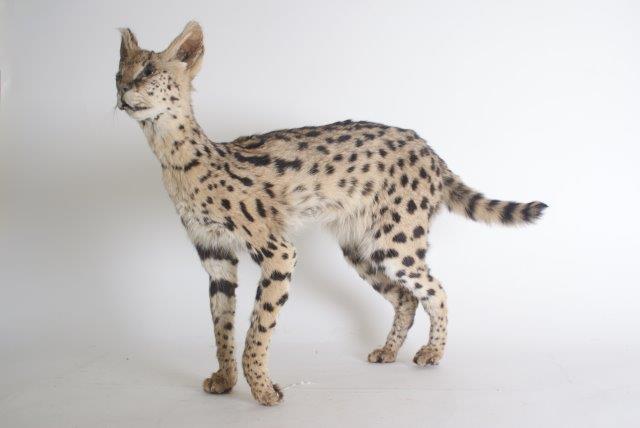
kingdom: Animalia
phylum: Chordata
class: Mammalia
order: Carnivora
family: Felidae
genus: Leptailurus
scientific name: Leptailurus serval
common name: Serval
